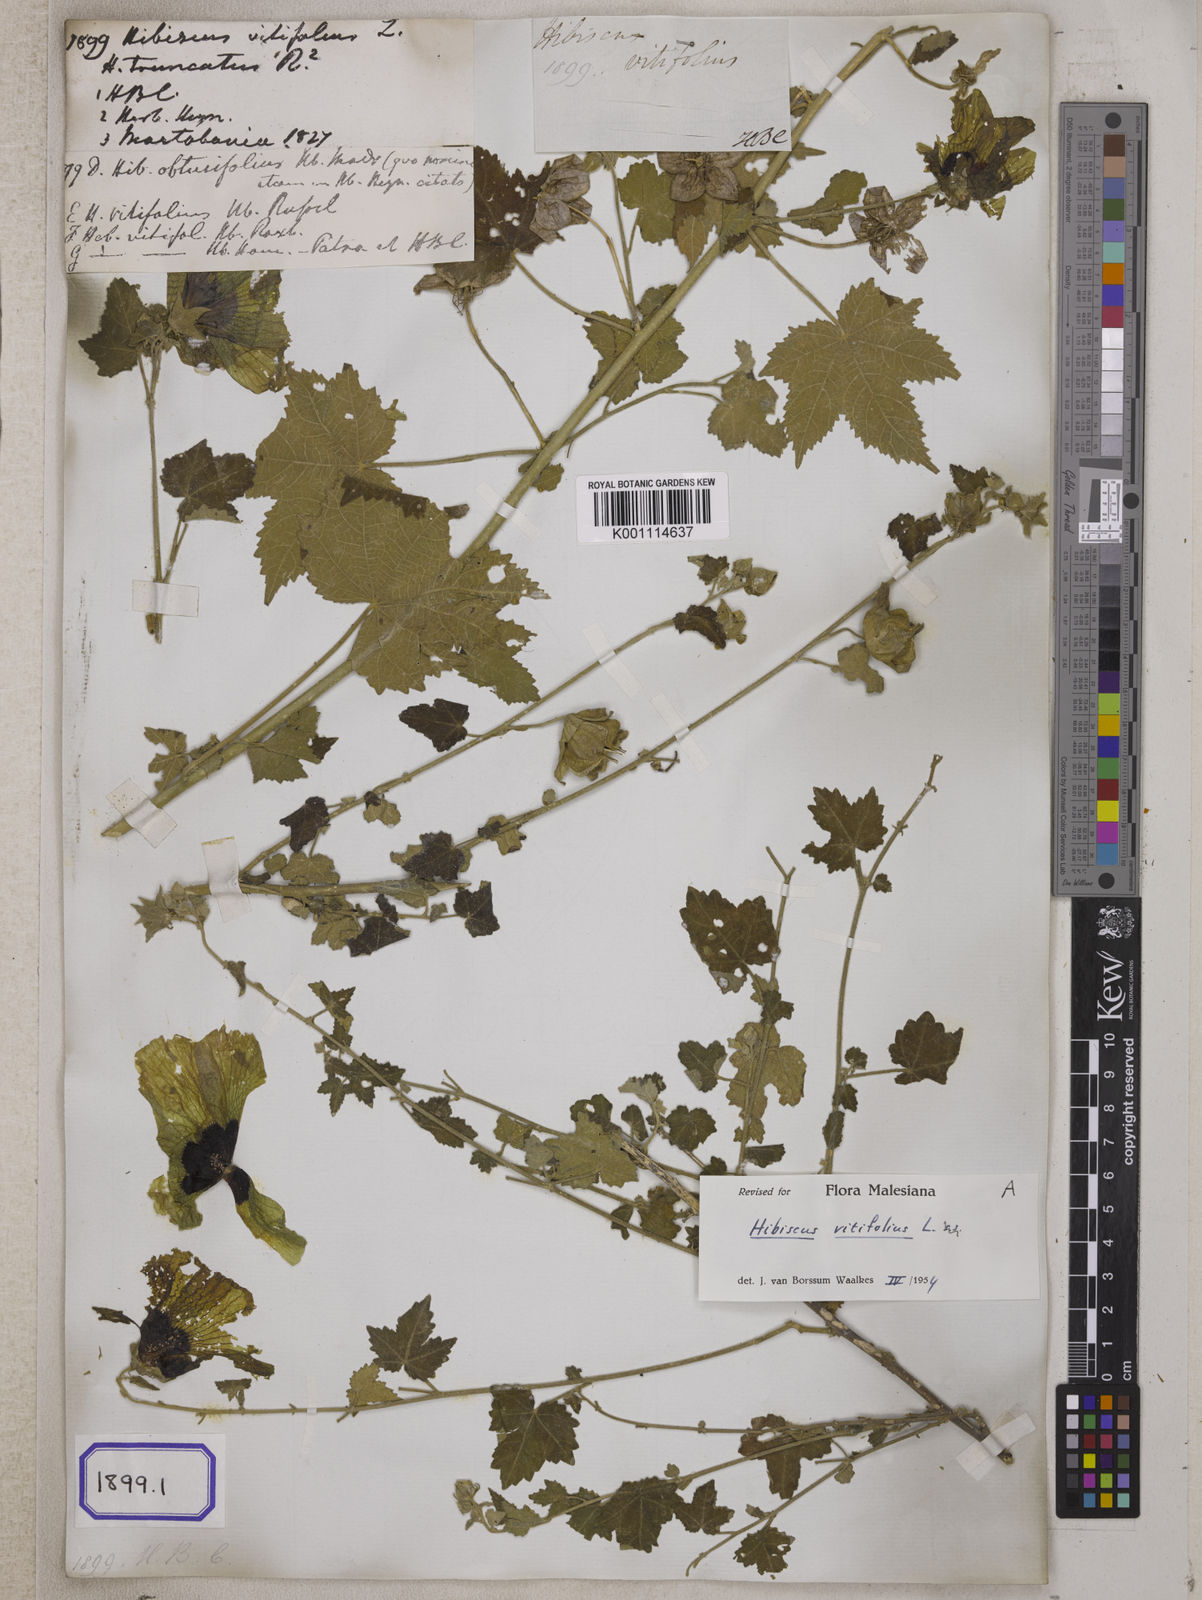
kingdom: Plantae
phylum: Tracheophyta
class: Magnoliopsida
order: Malvales
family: Malvaceae
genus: Hibiscus
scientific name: Hibiscus vitifolius
